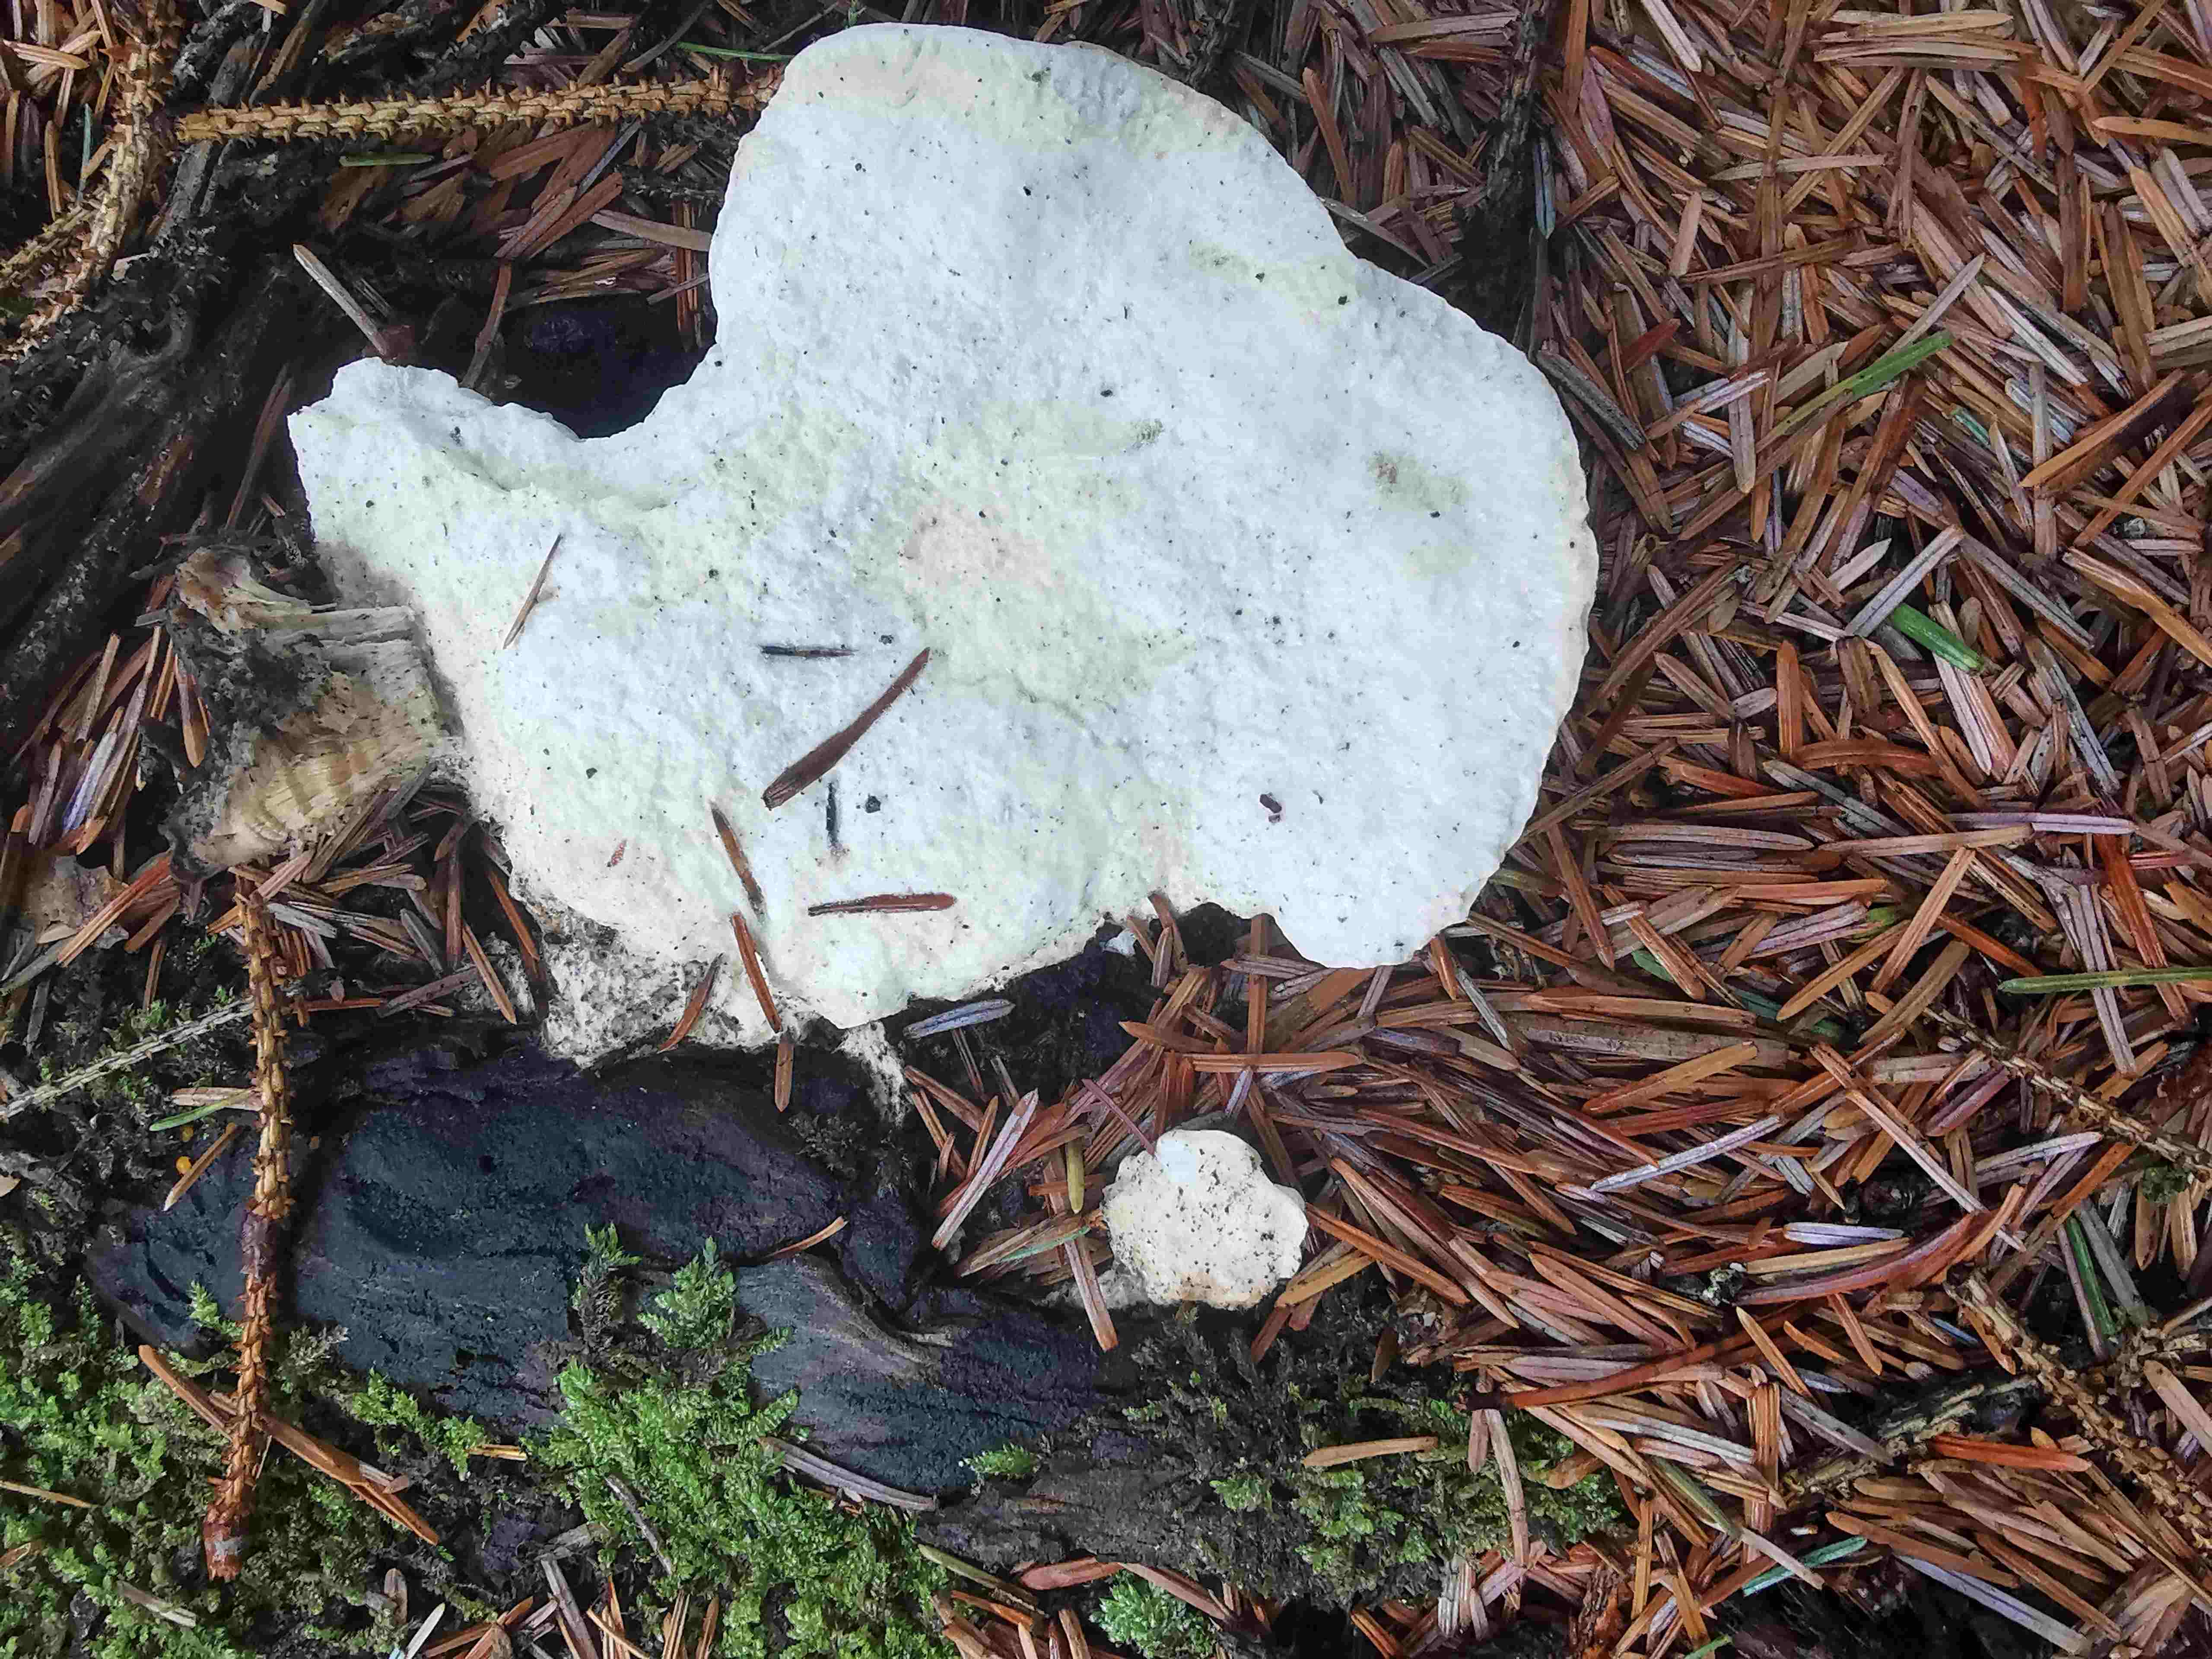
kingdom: Fungi
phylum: Basidiomycota
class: Agaricomycetes
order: Polyporales
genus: Amaropostia
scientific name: Amaropostia stiptica
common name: bitter kødporesvamp
